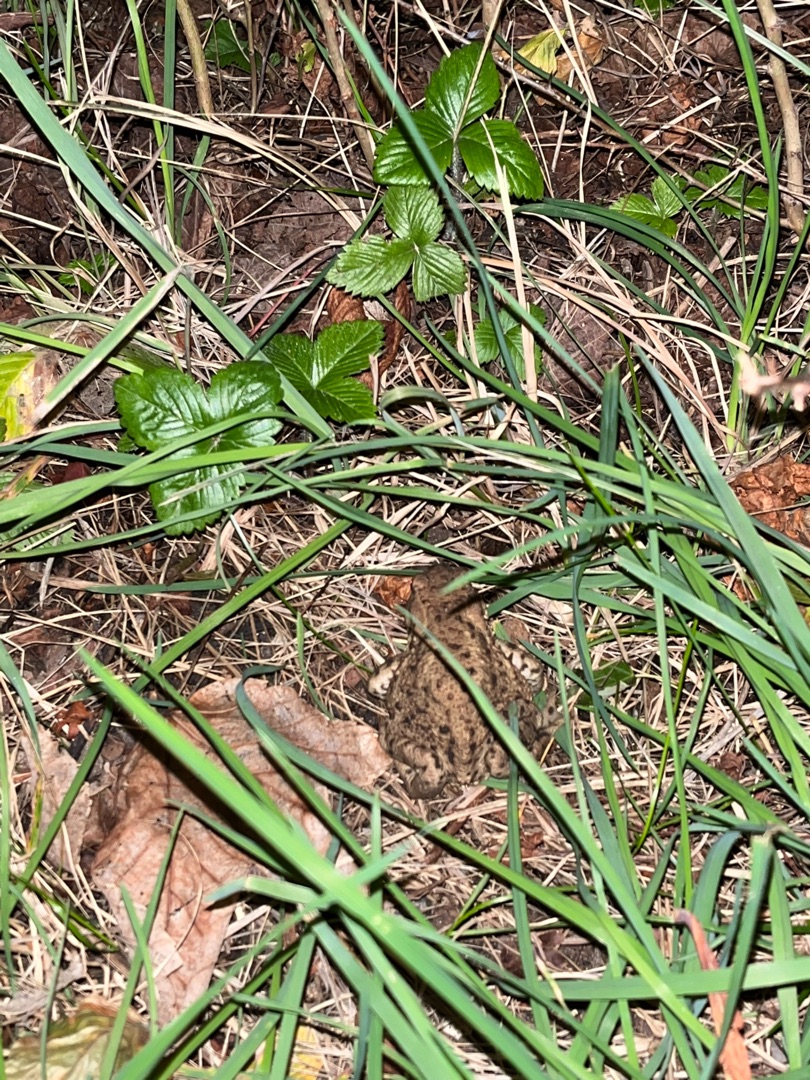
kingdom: Animalia
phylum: Chordata
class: Amphibia
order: Anura
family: Bufonidae
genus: Bufo
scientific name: Bufo bufo
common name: Skrubtudse
